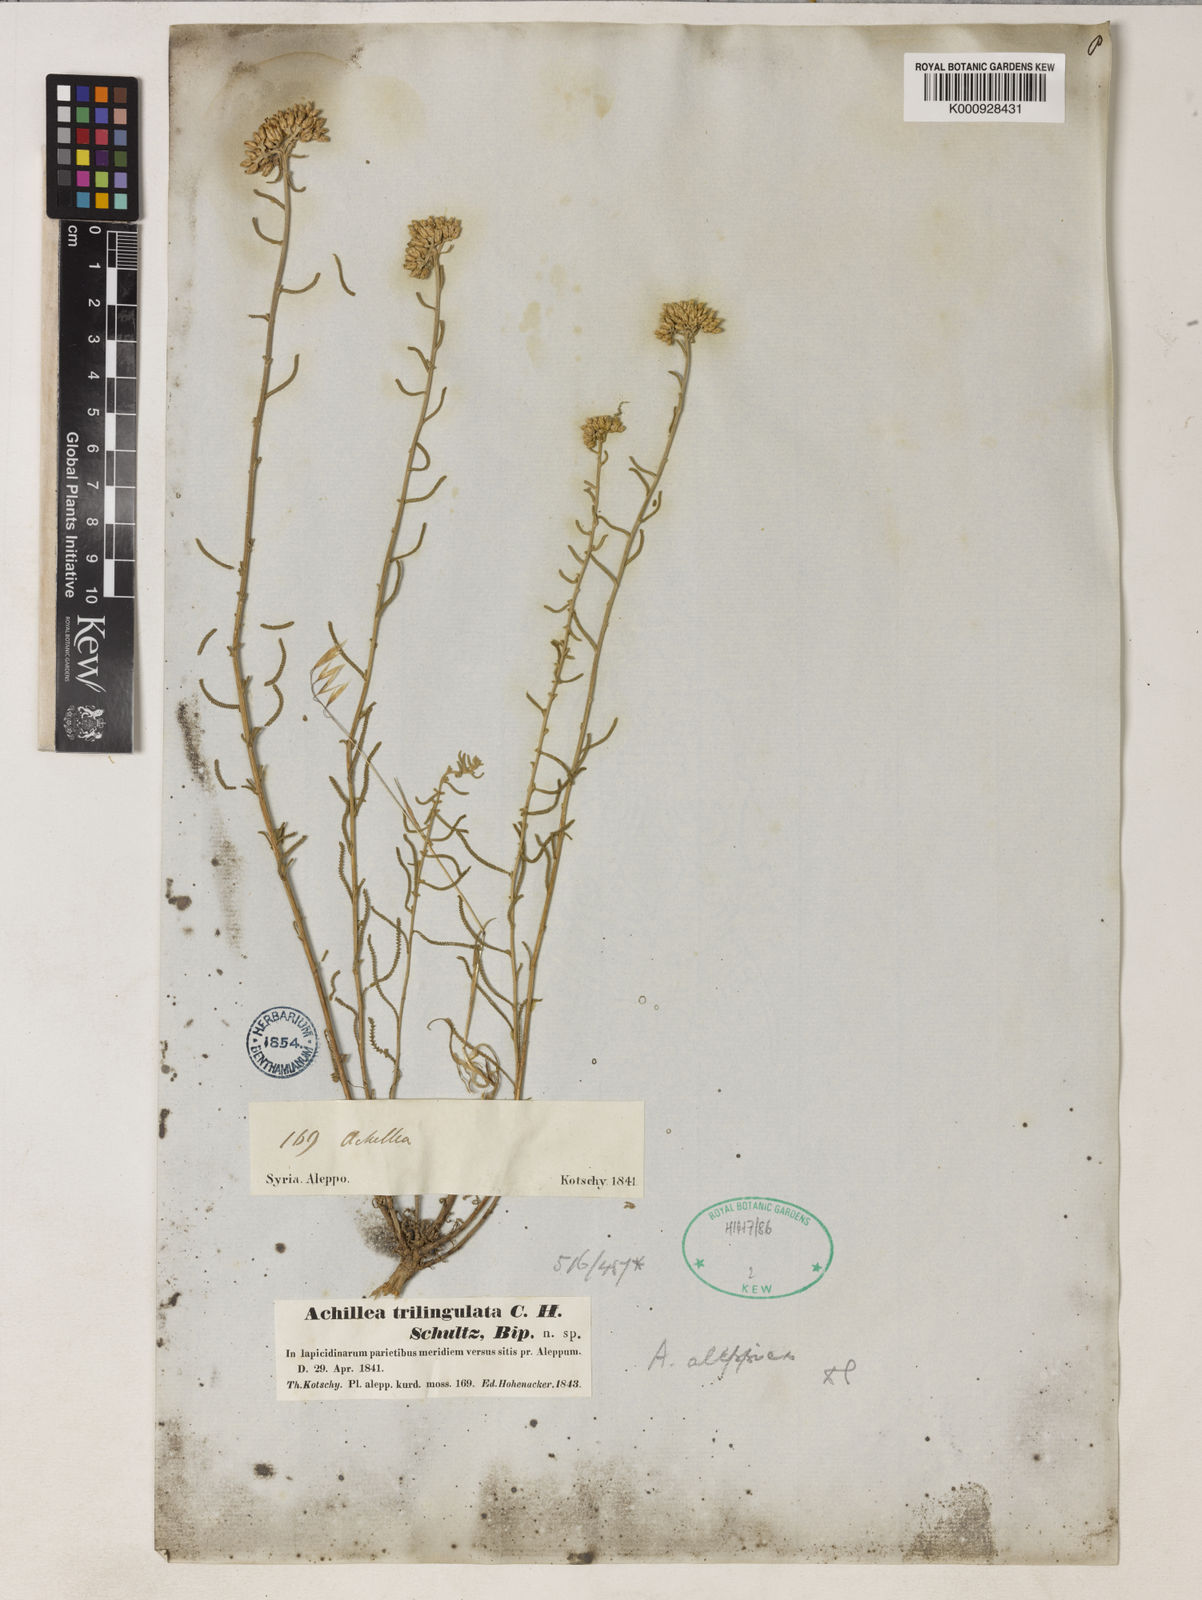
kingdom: Plantae
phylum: Tracheophyta
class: Magnoliopsida
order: Asterales
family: Asteraceae
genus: Achillea
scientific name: Achillea aleppica
